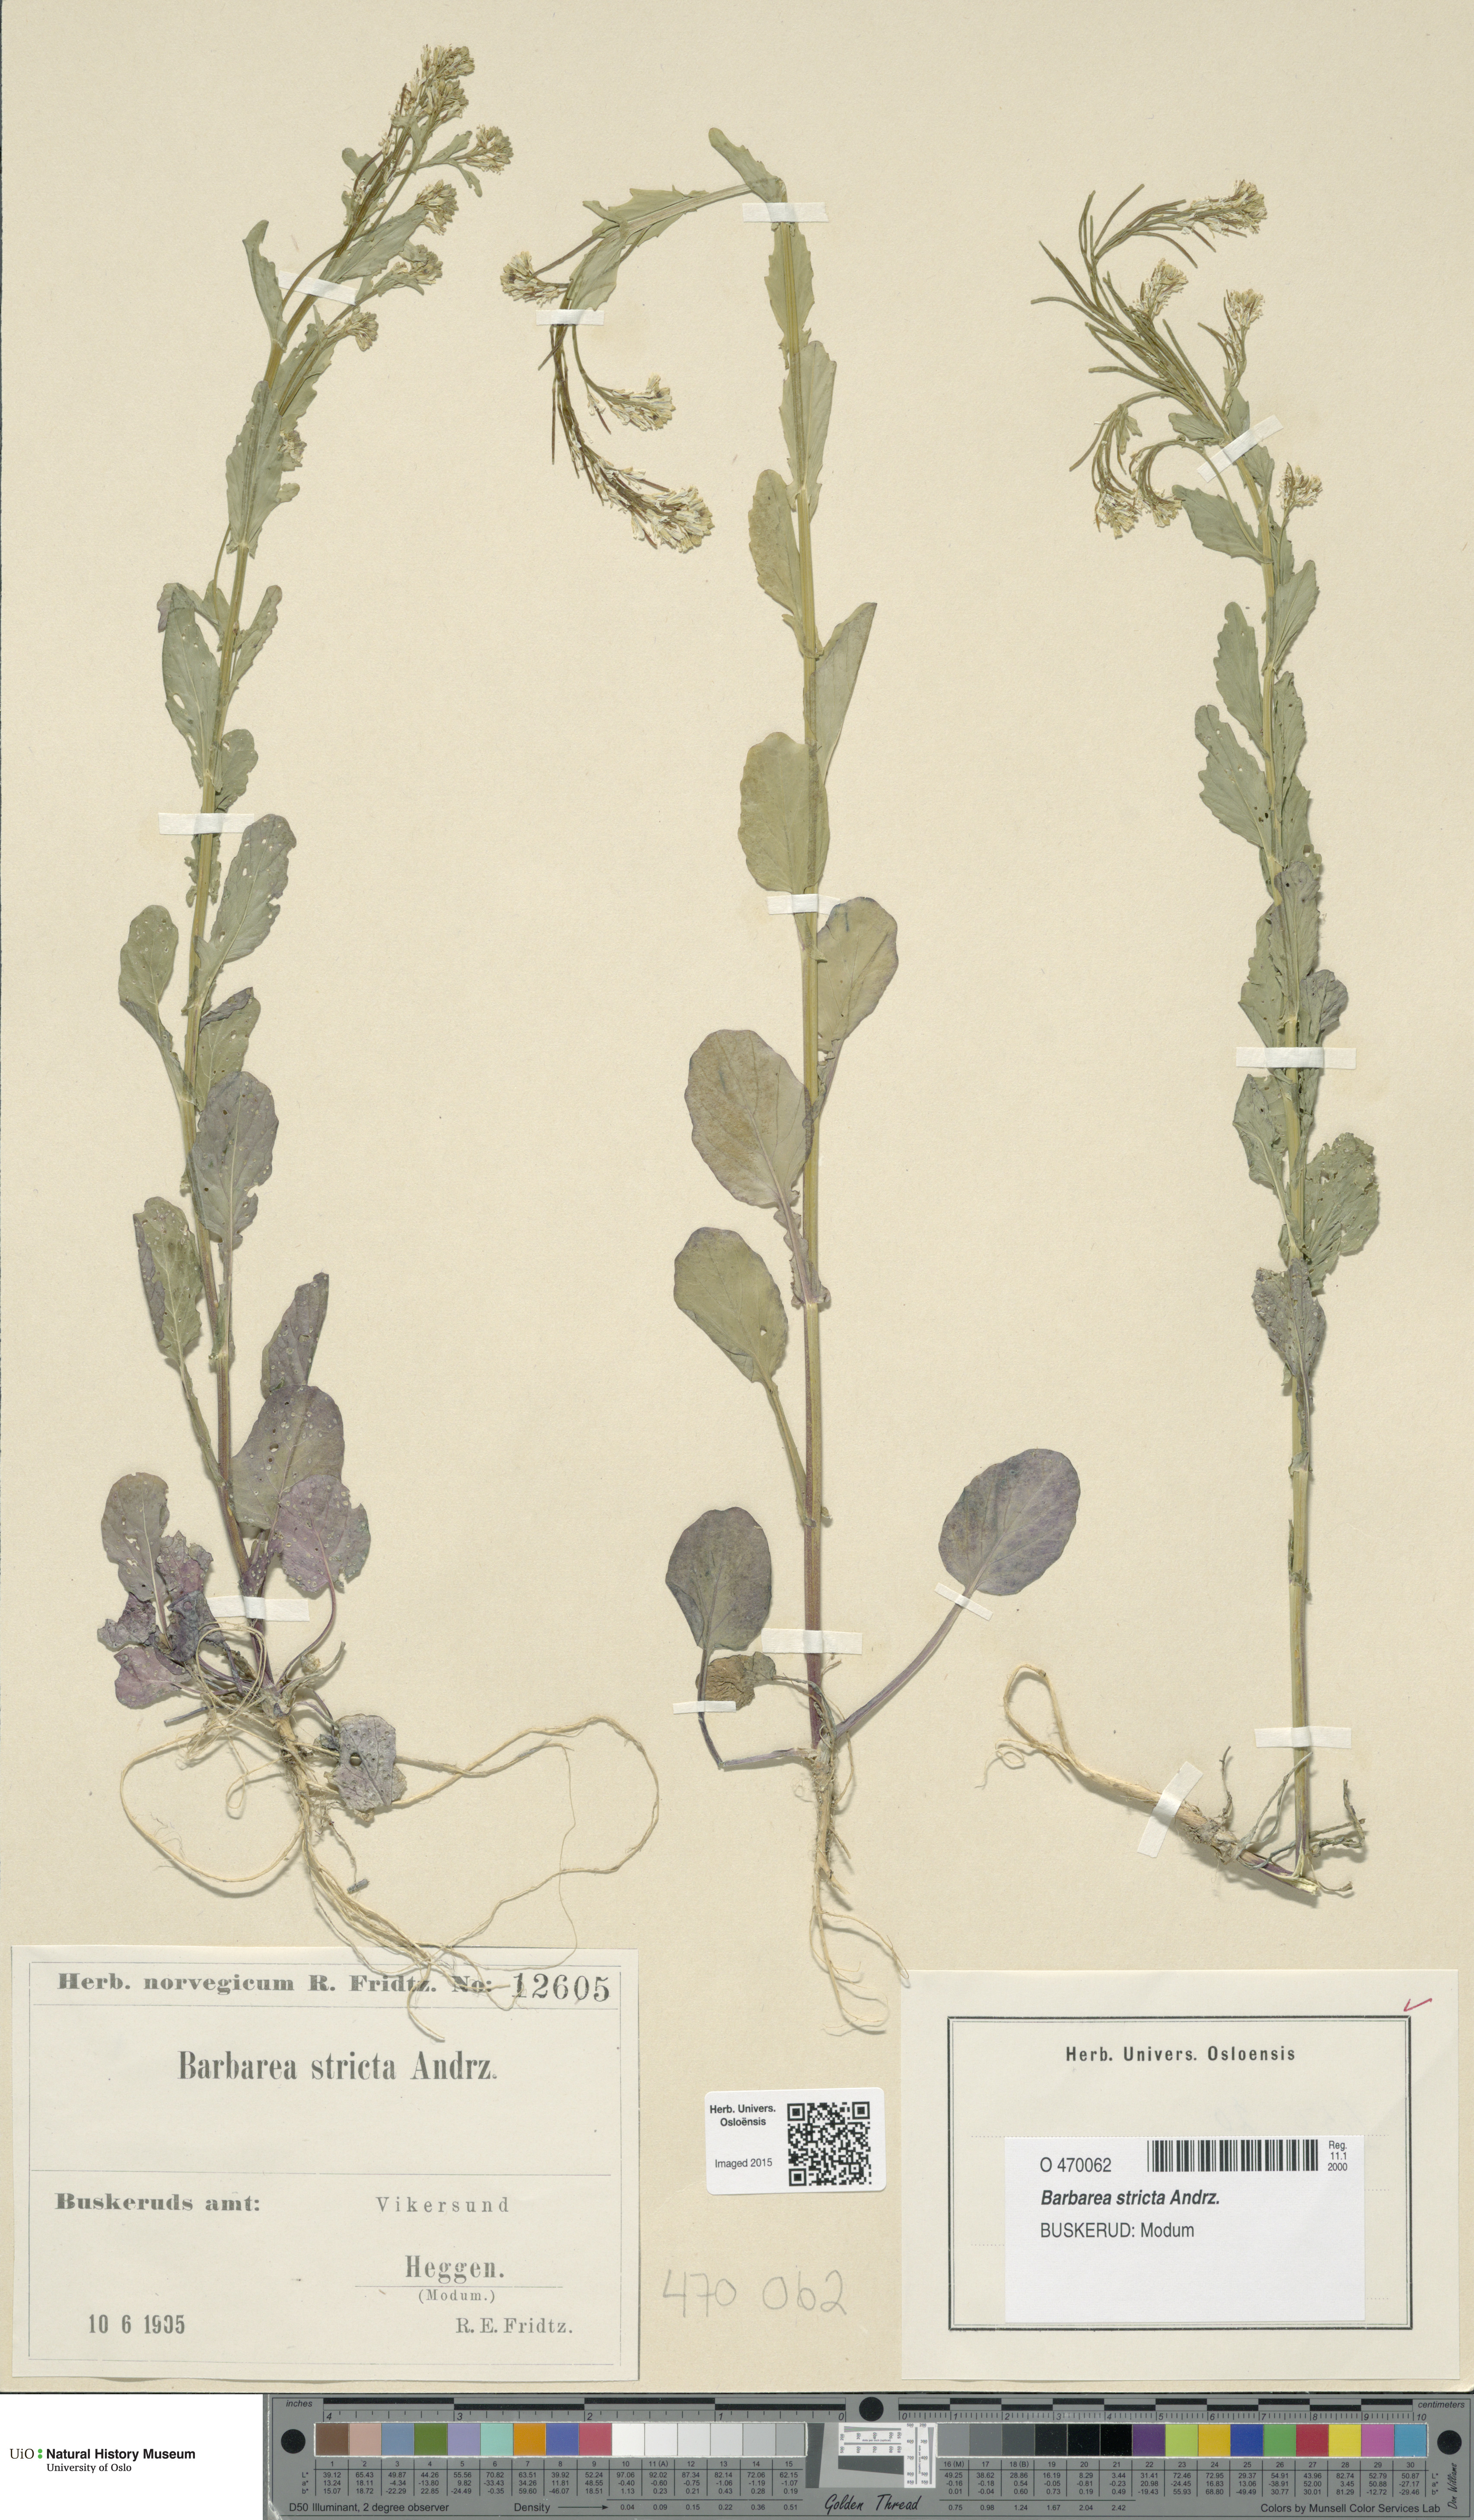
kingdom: Plantae
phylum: Tracheophyta
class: Magnoliopsida
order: Brassicales
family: Brassicaceae
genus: Barbarea
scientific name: Barbarea stricta
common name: Small-flowered winter-cress
